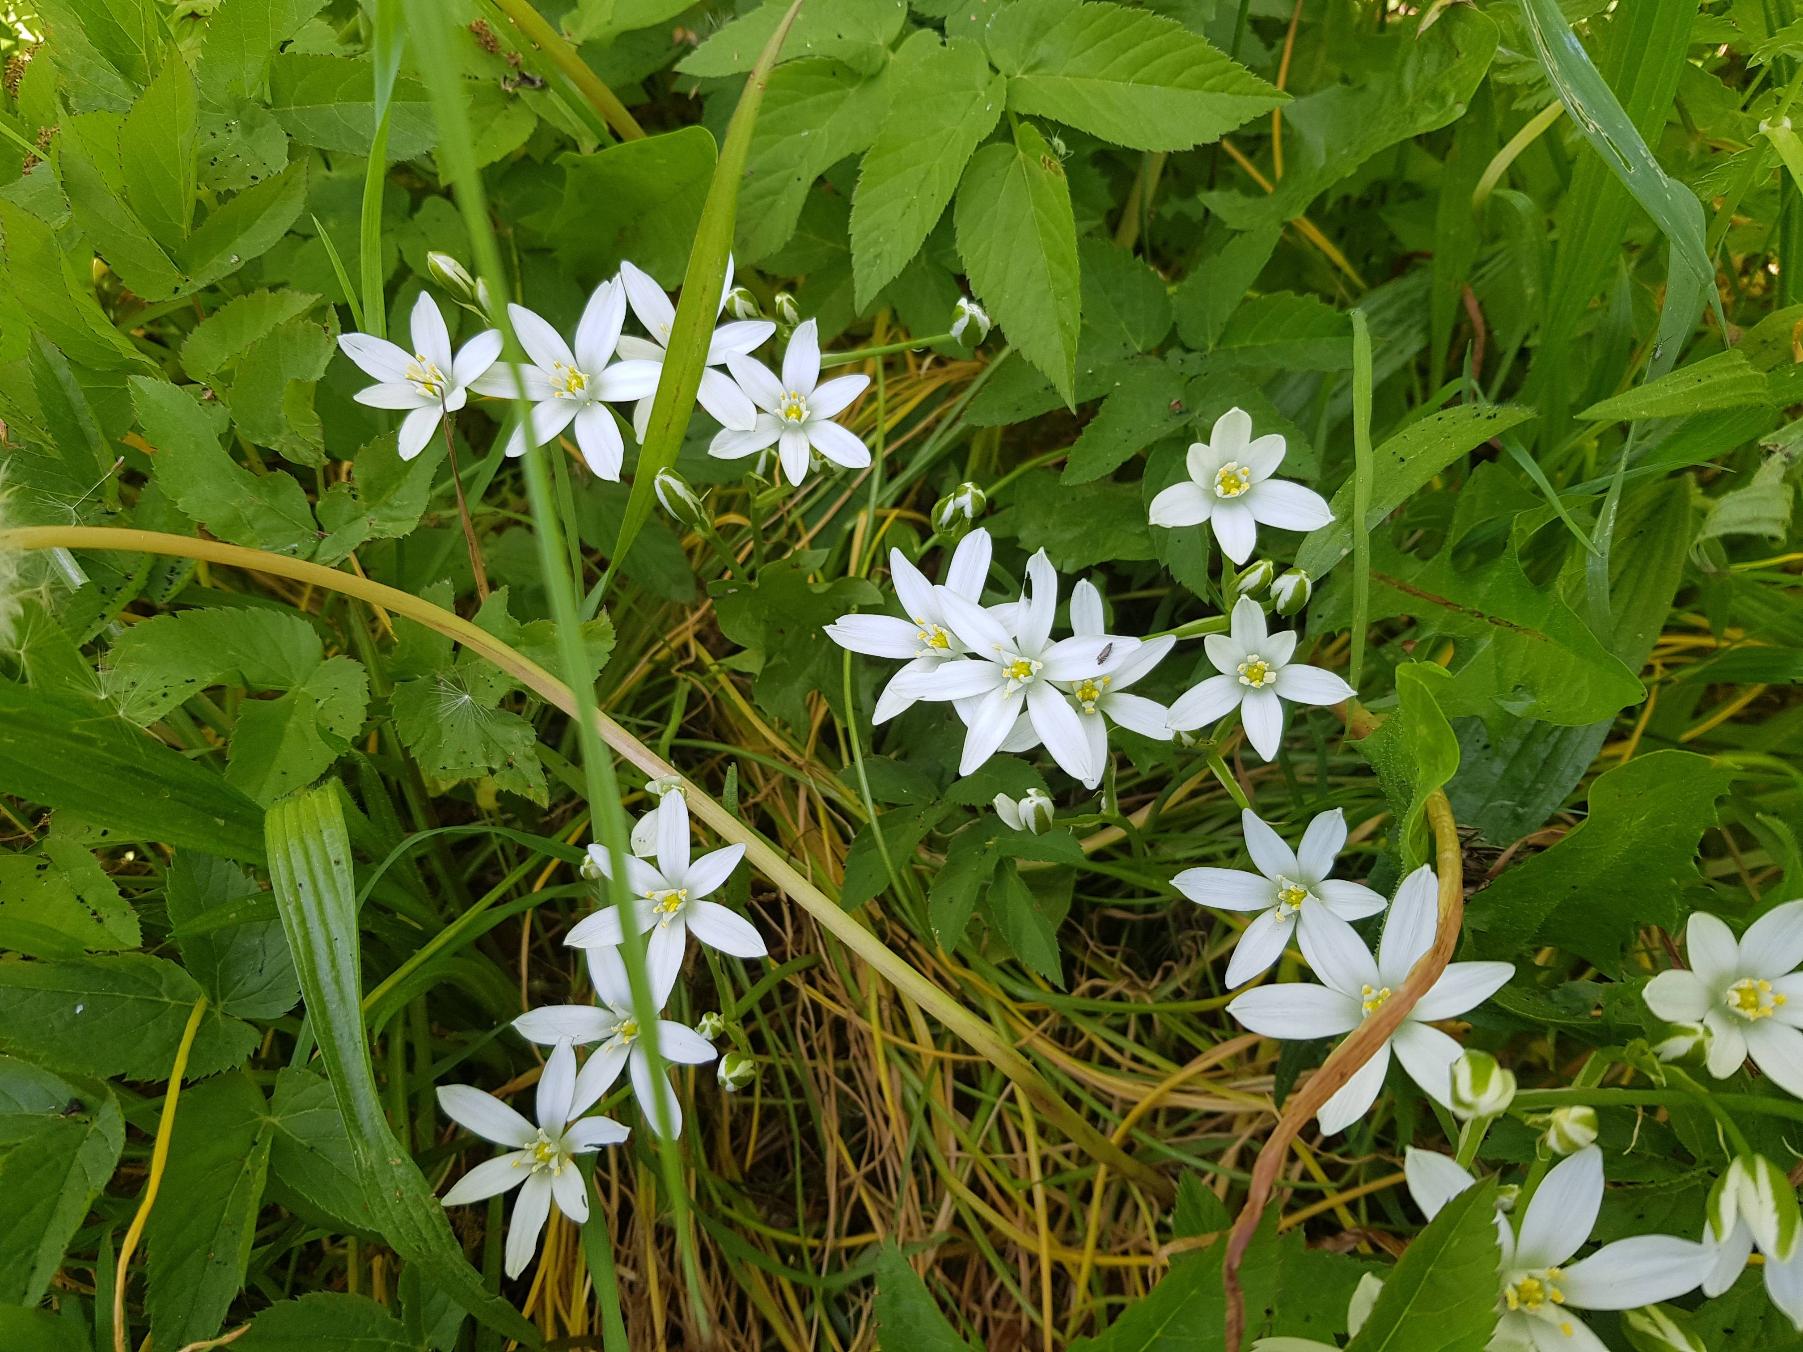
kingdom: Plantae
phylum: Tracheophyta
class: Liliopsida
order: Asparagales
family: Asparagaceae
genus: Ornithogalum
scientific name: Ornithogalum umbellatum
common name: Kost-fuglemælk
